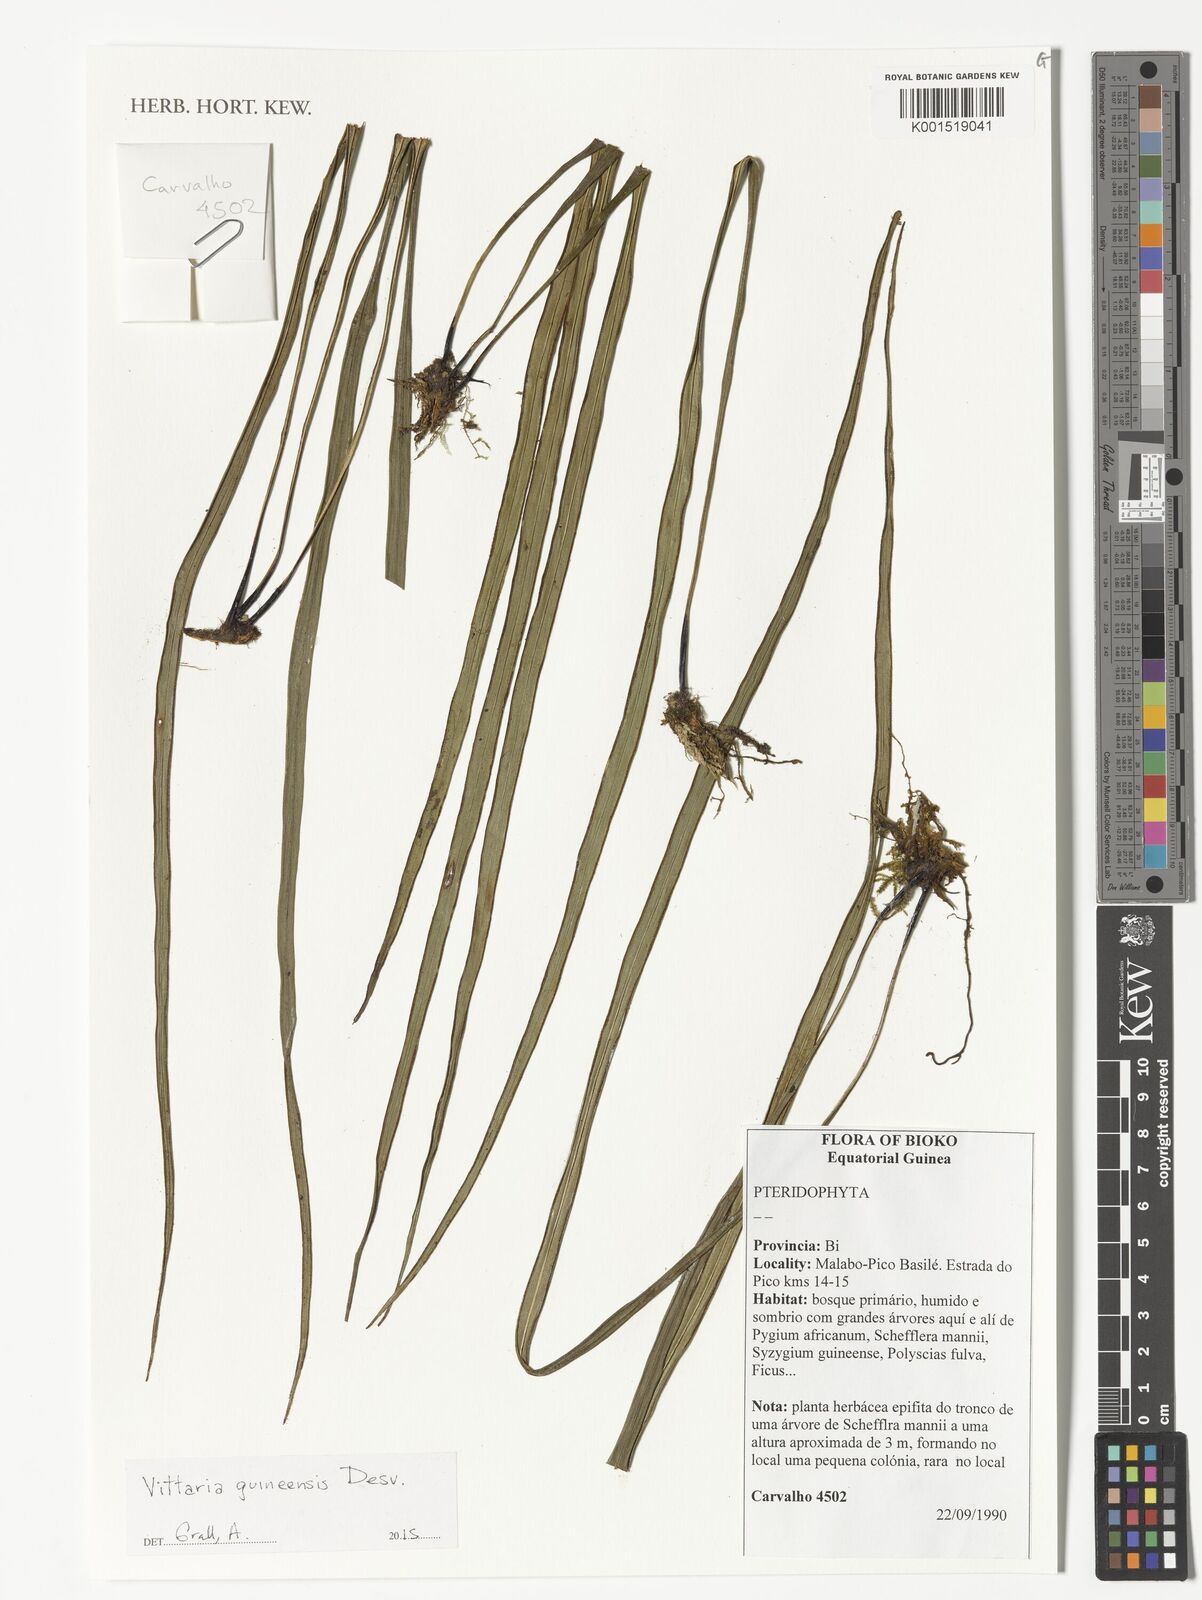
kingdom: Plantae
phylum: Tracheophyta
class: Polypodiopsida
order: Polypodiales
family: Pteridaceae
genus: Haplopteris
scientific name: Haplopteris guineensis
